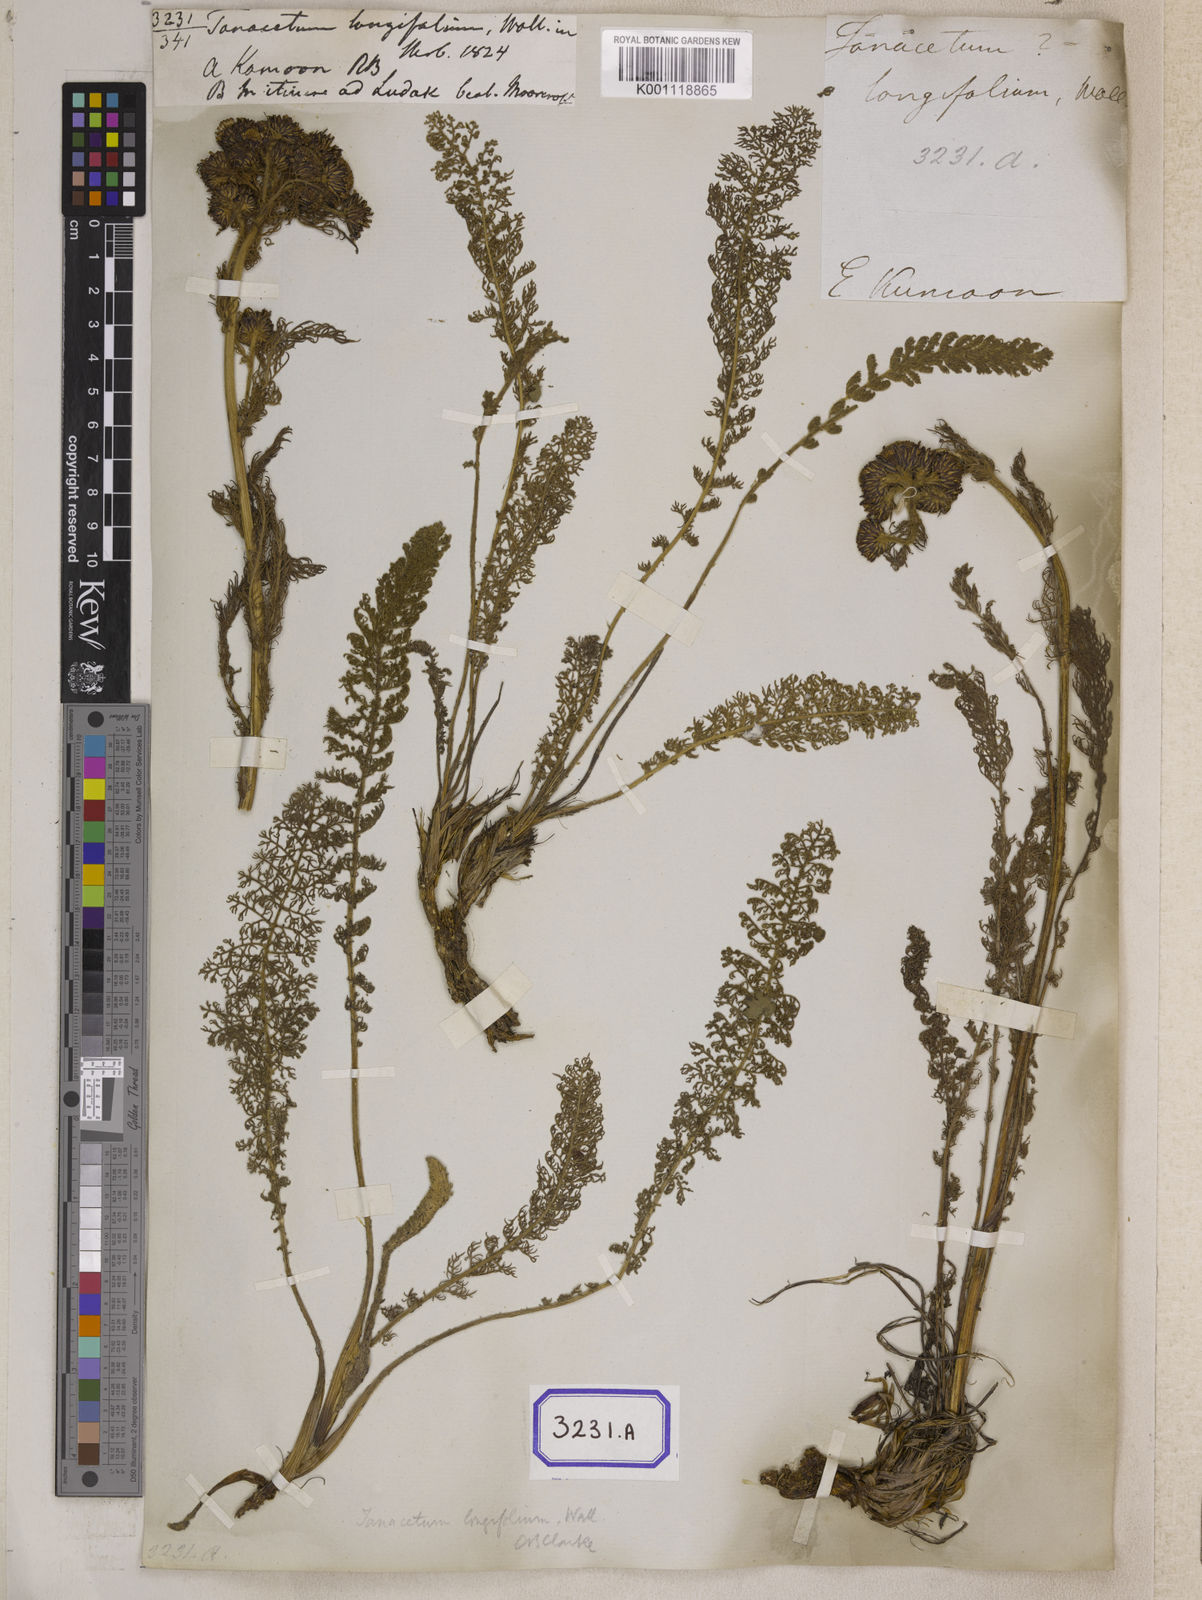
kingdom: Plantae
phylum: Tracheophyta
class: Magnoliopsida
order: Asterales
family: Asteraceae
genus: Hippolytia
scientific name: Hippolytia longifolia
